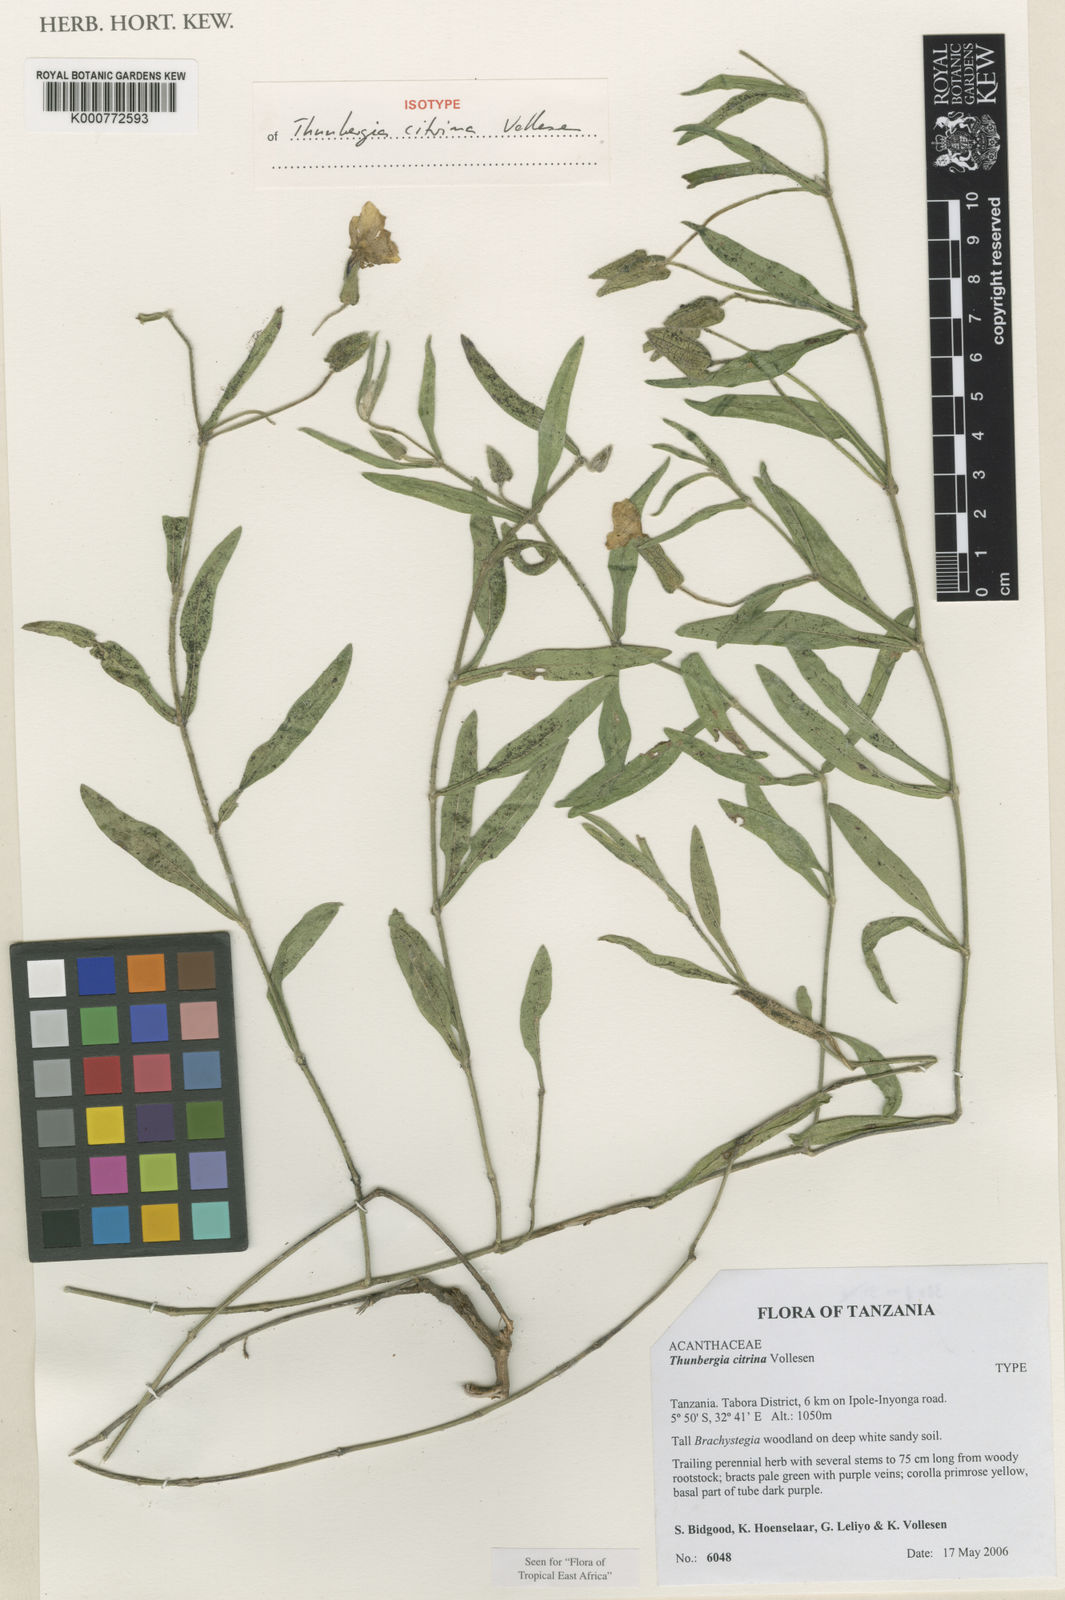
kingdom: Plantae
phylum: Tracheophyta
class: Magnoliopsida
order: Lamiales
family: Acanthaceae
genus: Thunbergia
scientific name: Thunbergia citrina
